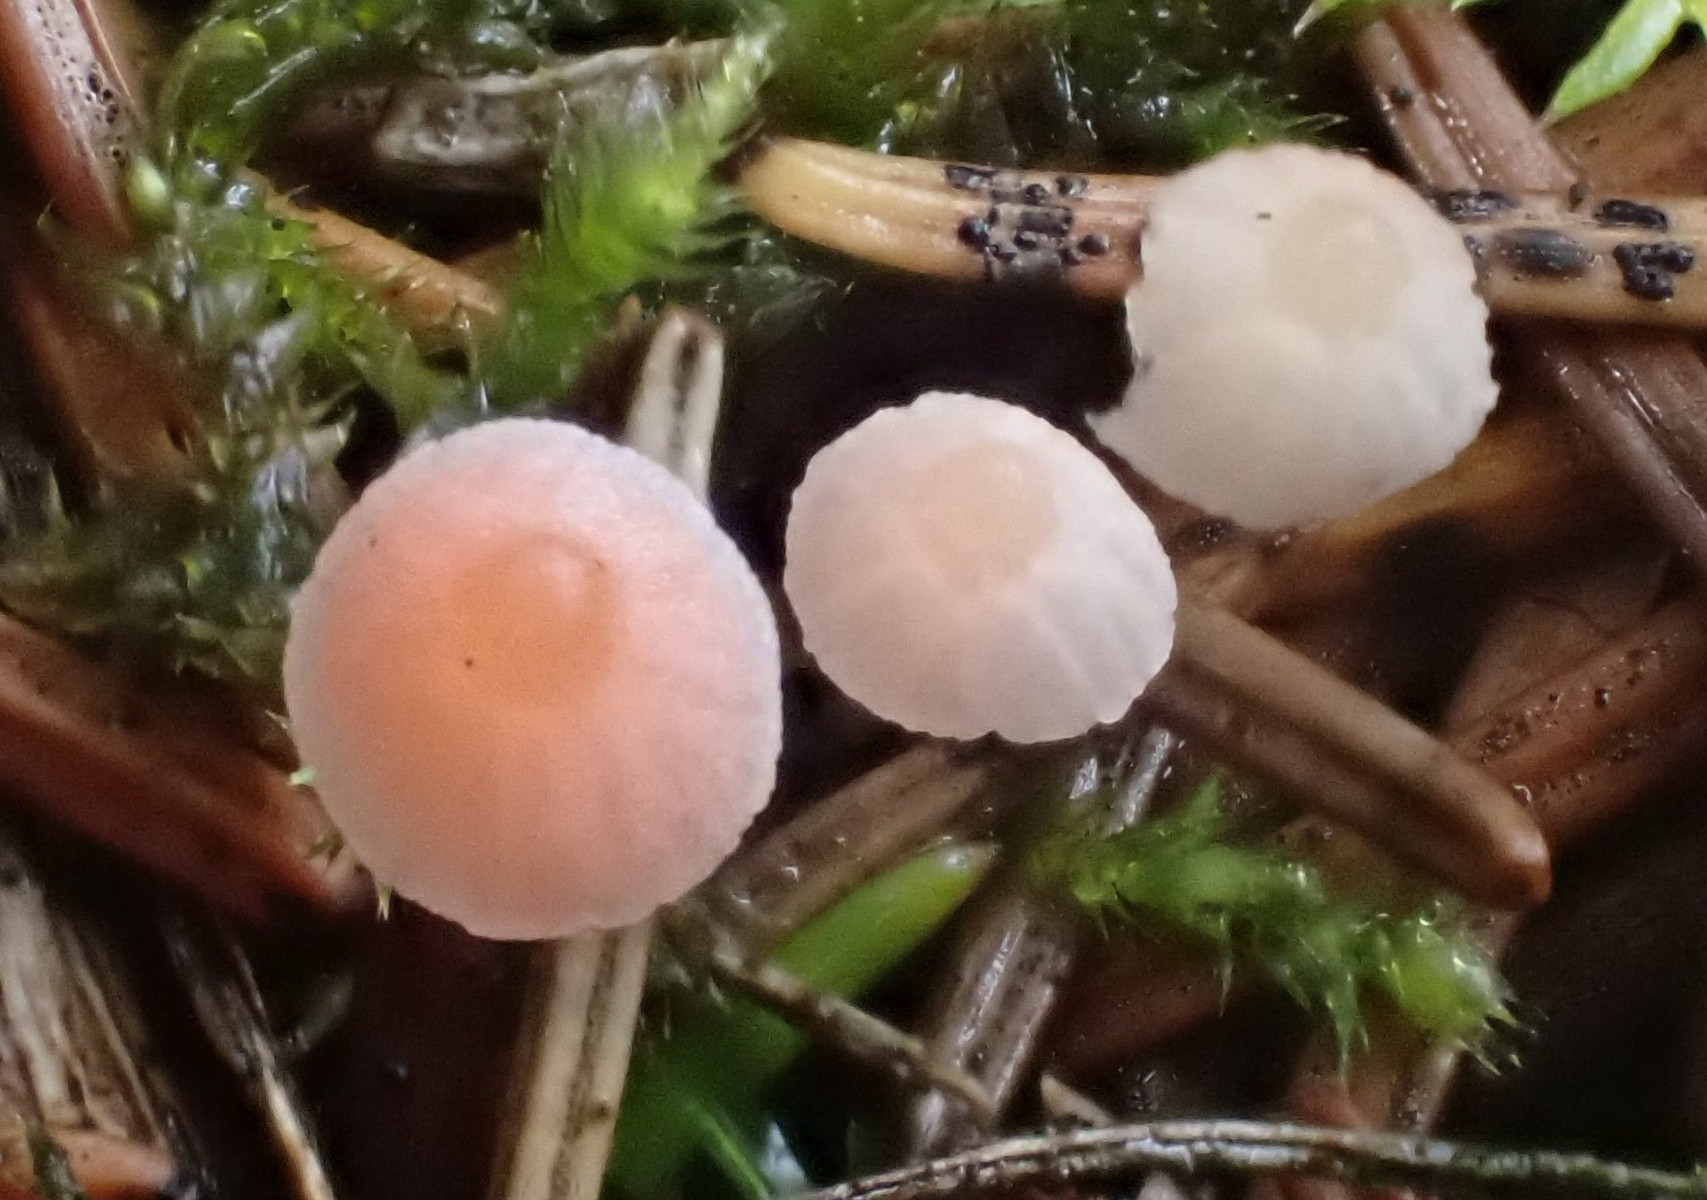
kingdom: Fungi
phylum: Basidiomycota
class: Agaricomycetes
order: Agaricales
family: Mycenaceae
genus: Atheniella
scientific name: Atheniella
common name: huesvamp
